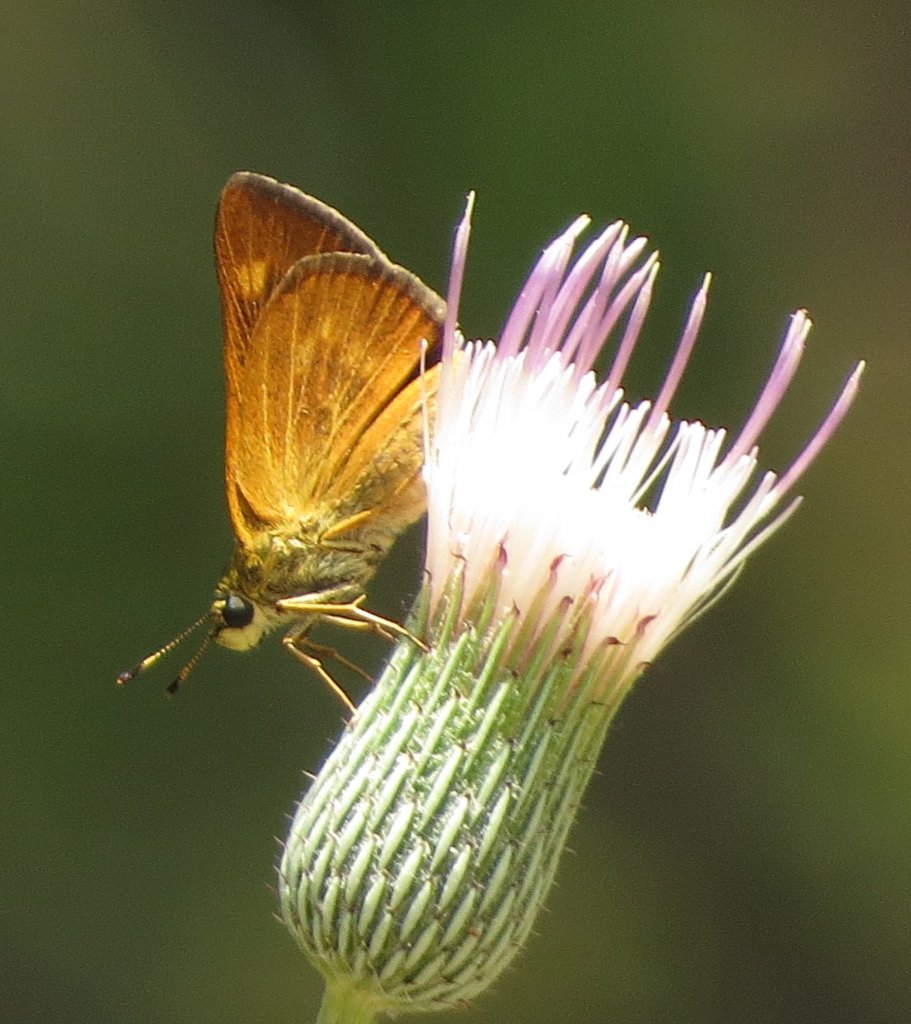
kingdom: Animalia
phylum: Arthropoda
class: Insecta
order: Lepidoptera
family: Hesperiidae
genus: Problema
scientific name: Problema byssus
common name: Byssus Skipper
